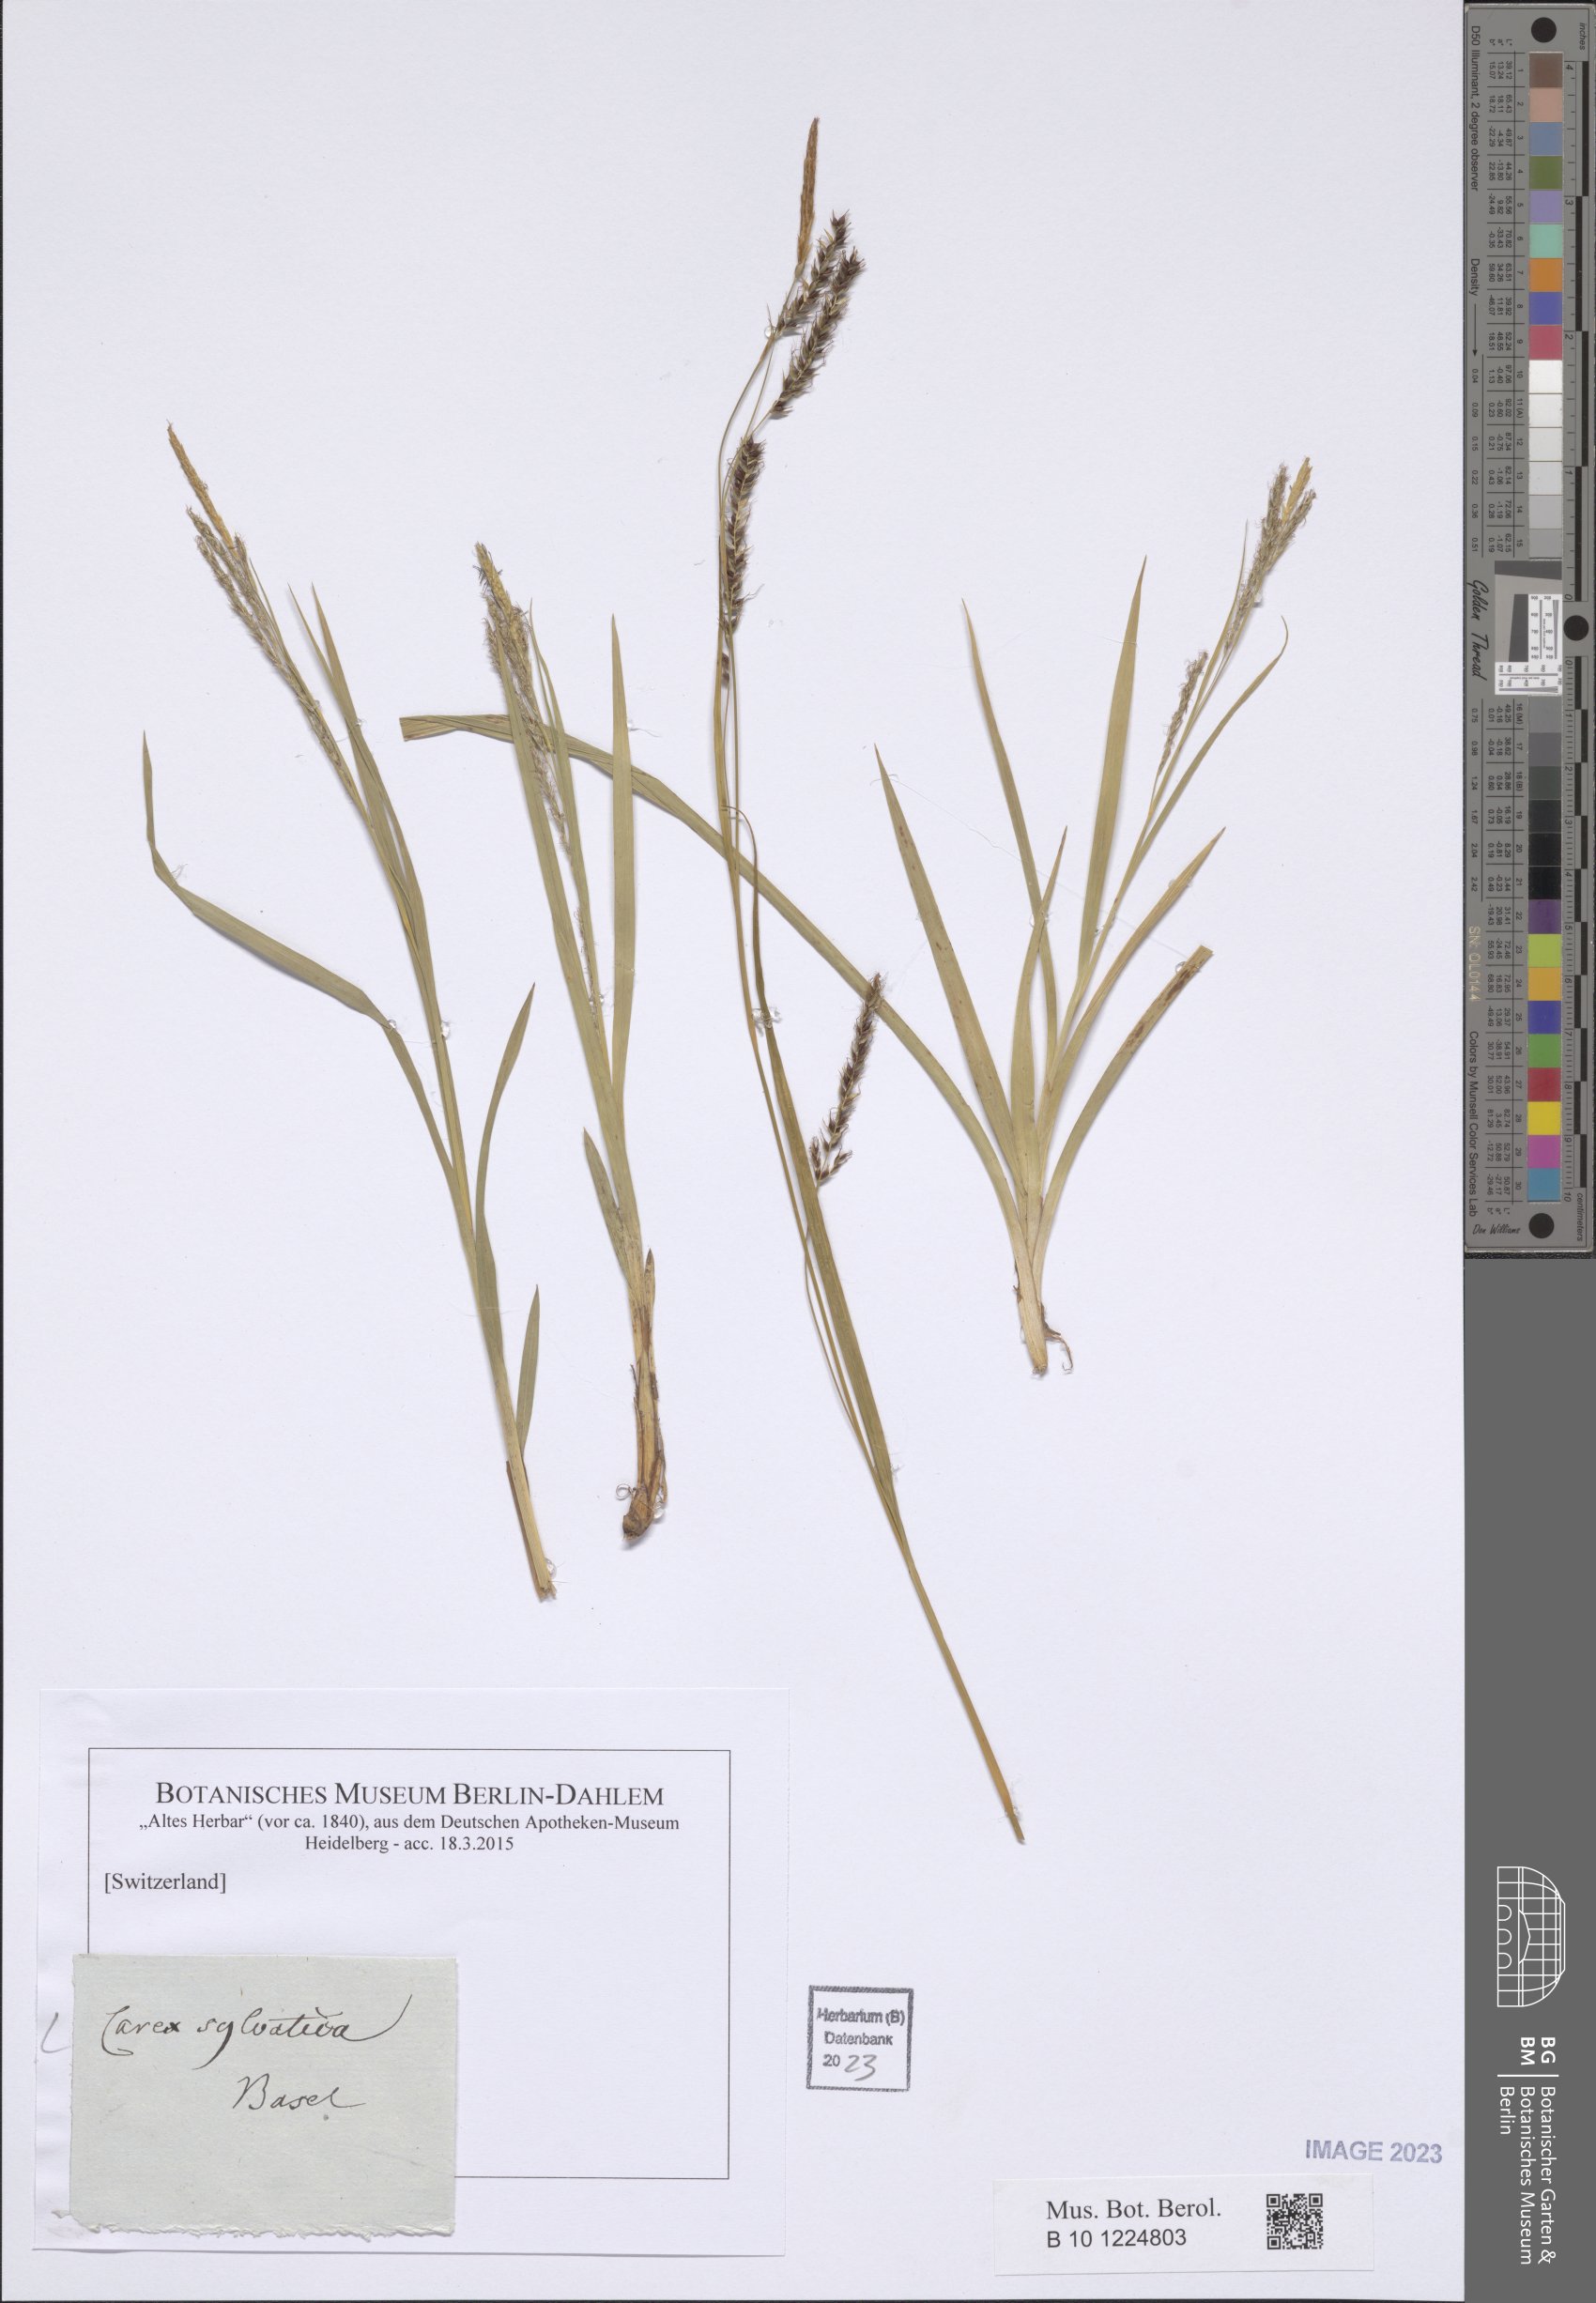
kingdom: Plantae
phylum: Tracheophyta
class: Liliopsida
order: Poales
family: Cyperaceae
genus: Carex
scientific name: Carex sylvatica
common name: Wood-sedge
